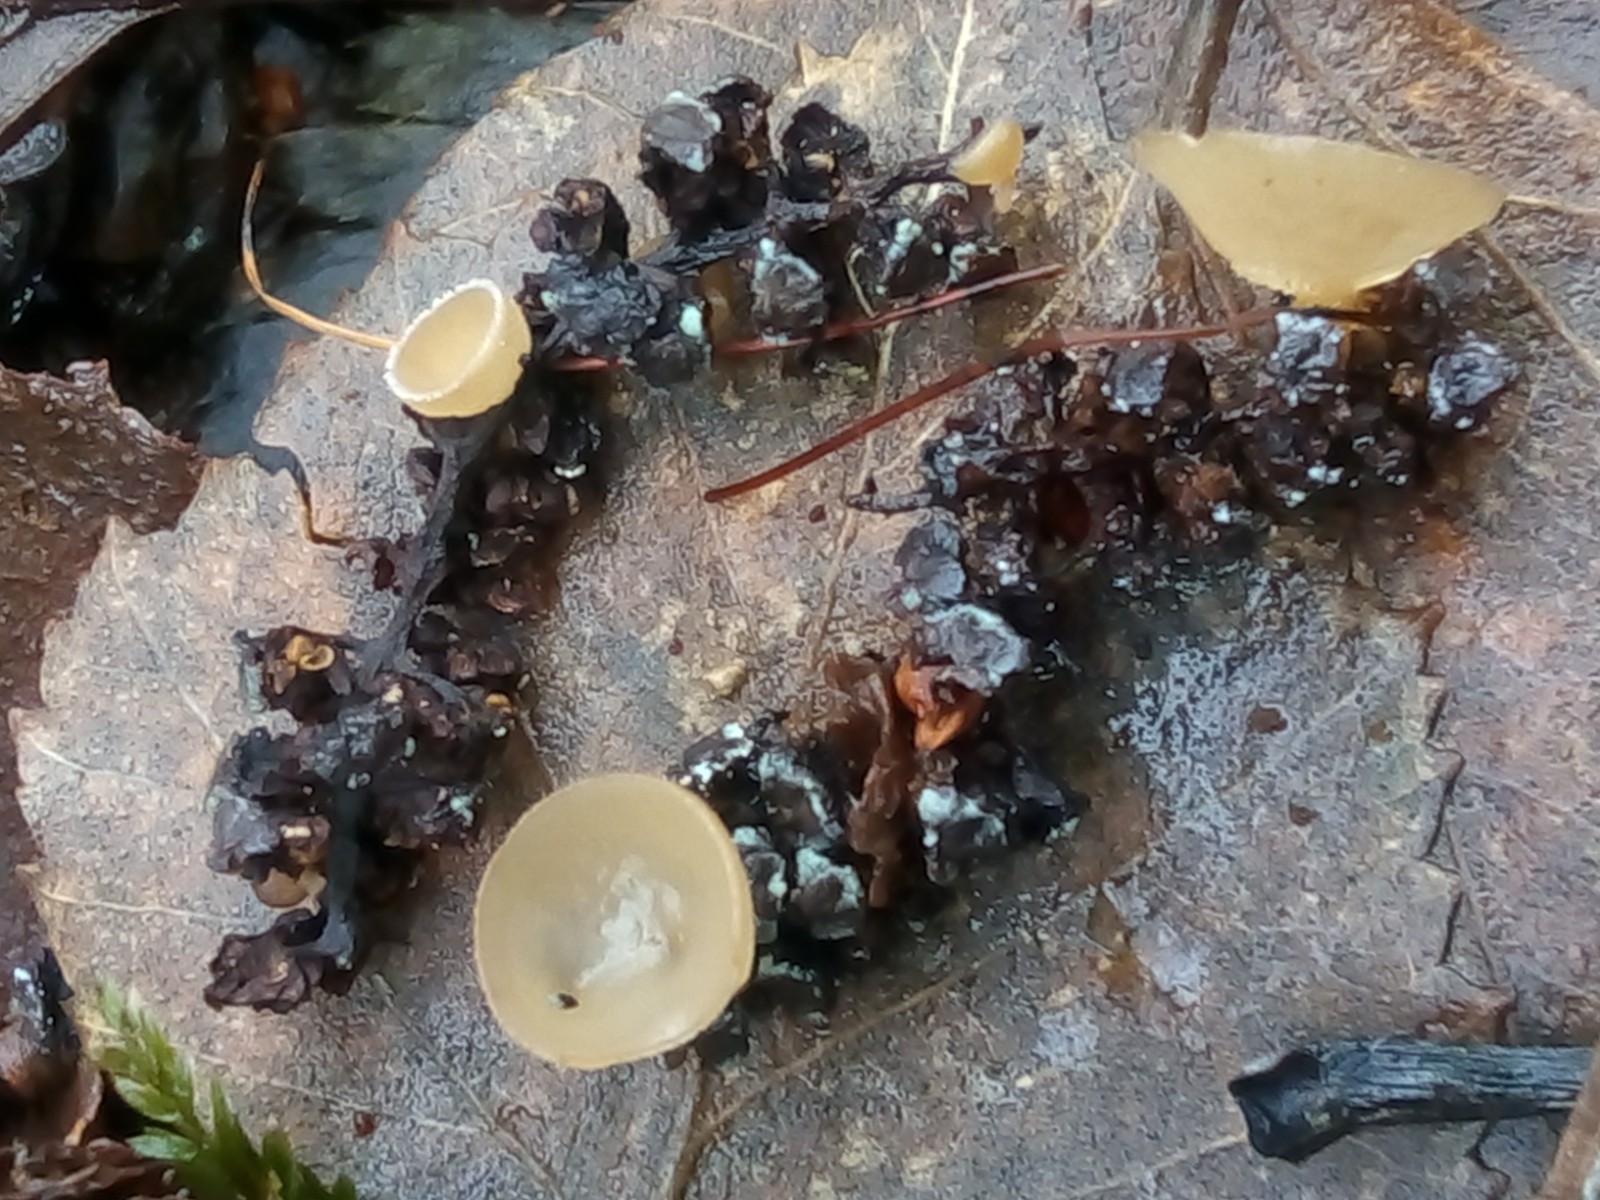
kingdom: Fungi
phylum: Ascomycota
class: Leotiomycetes
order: Helotiales
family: Sclerotiniaceae
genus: Ciboria
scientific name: Ciboria amentacea
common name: ellerakle-knoldskive
